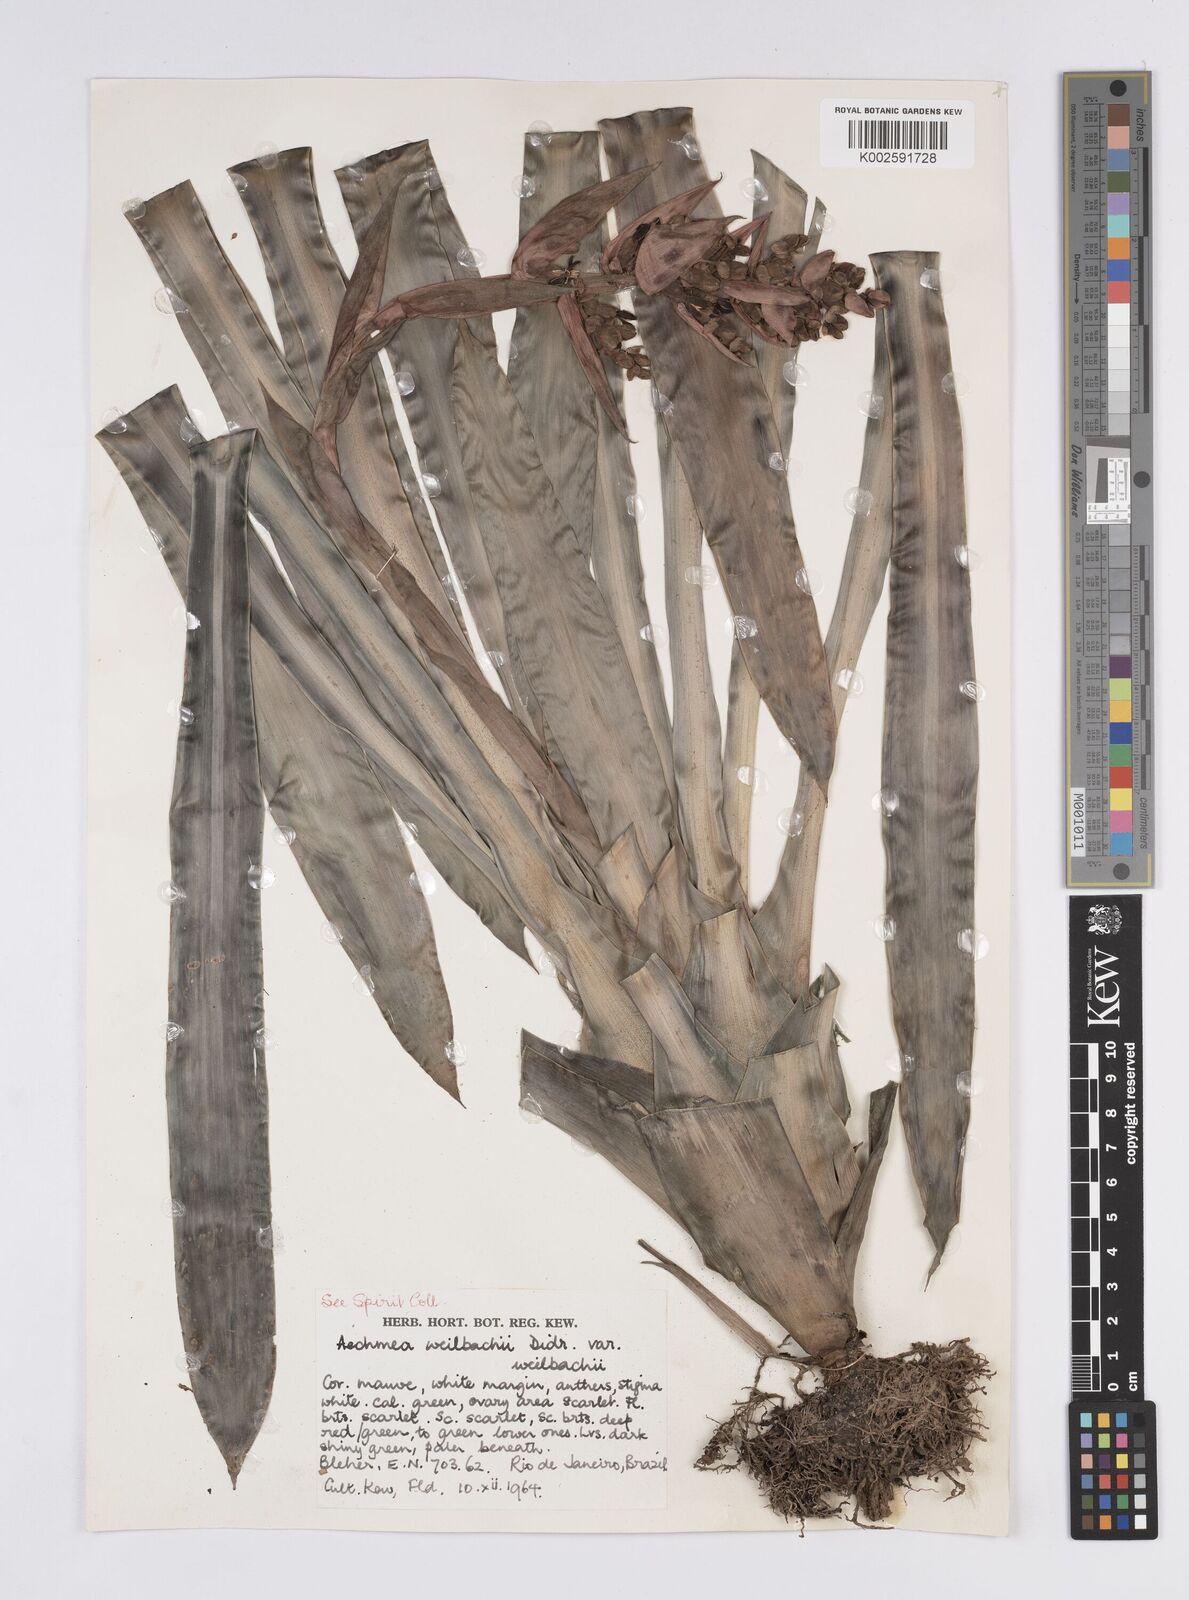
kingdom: Plantae
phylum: Tracheophyta
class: Liliopsida
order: Poales
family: Bromeliaceae
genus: Aechmea
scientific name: Aechmea weilbachii
